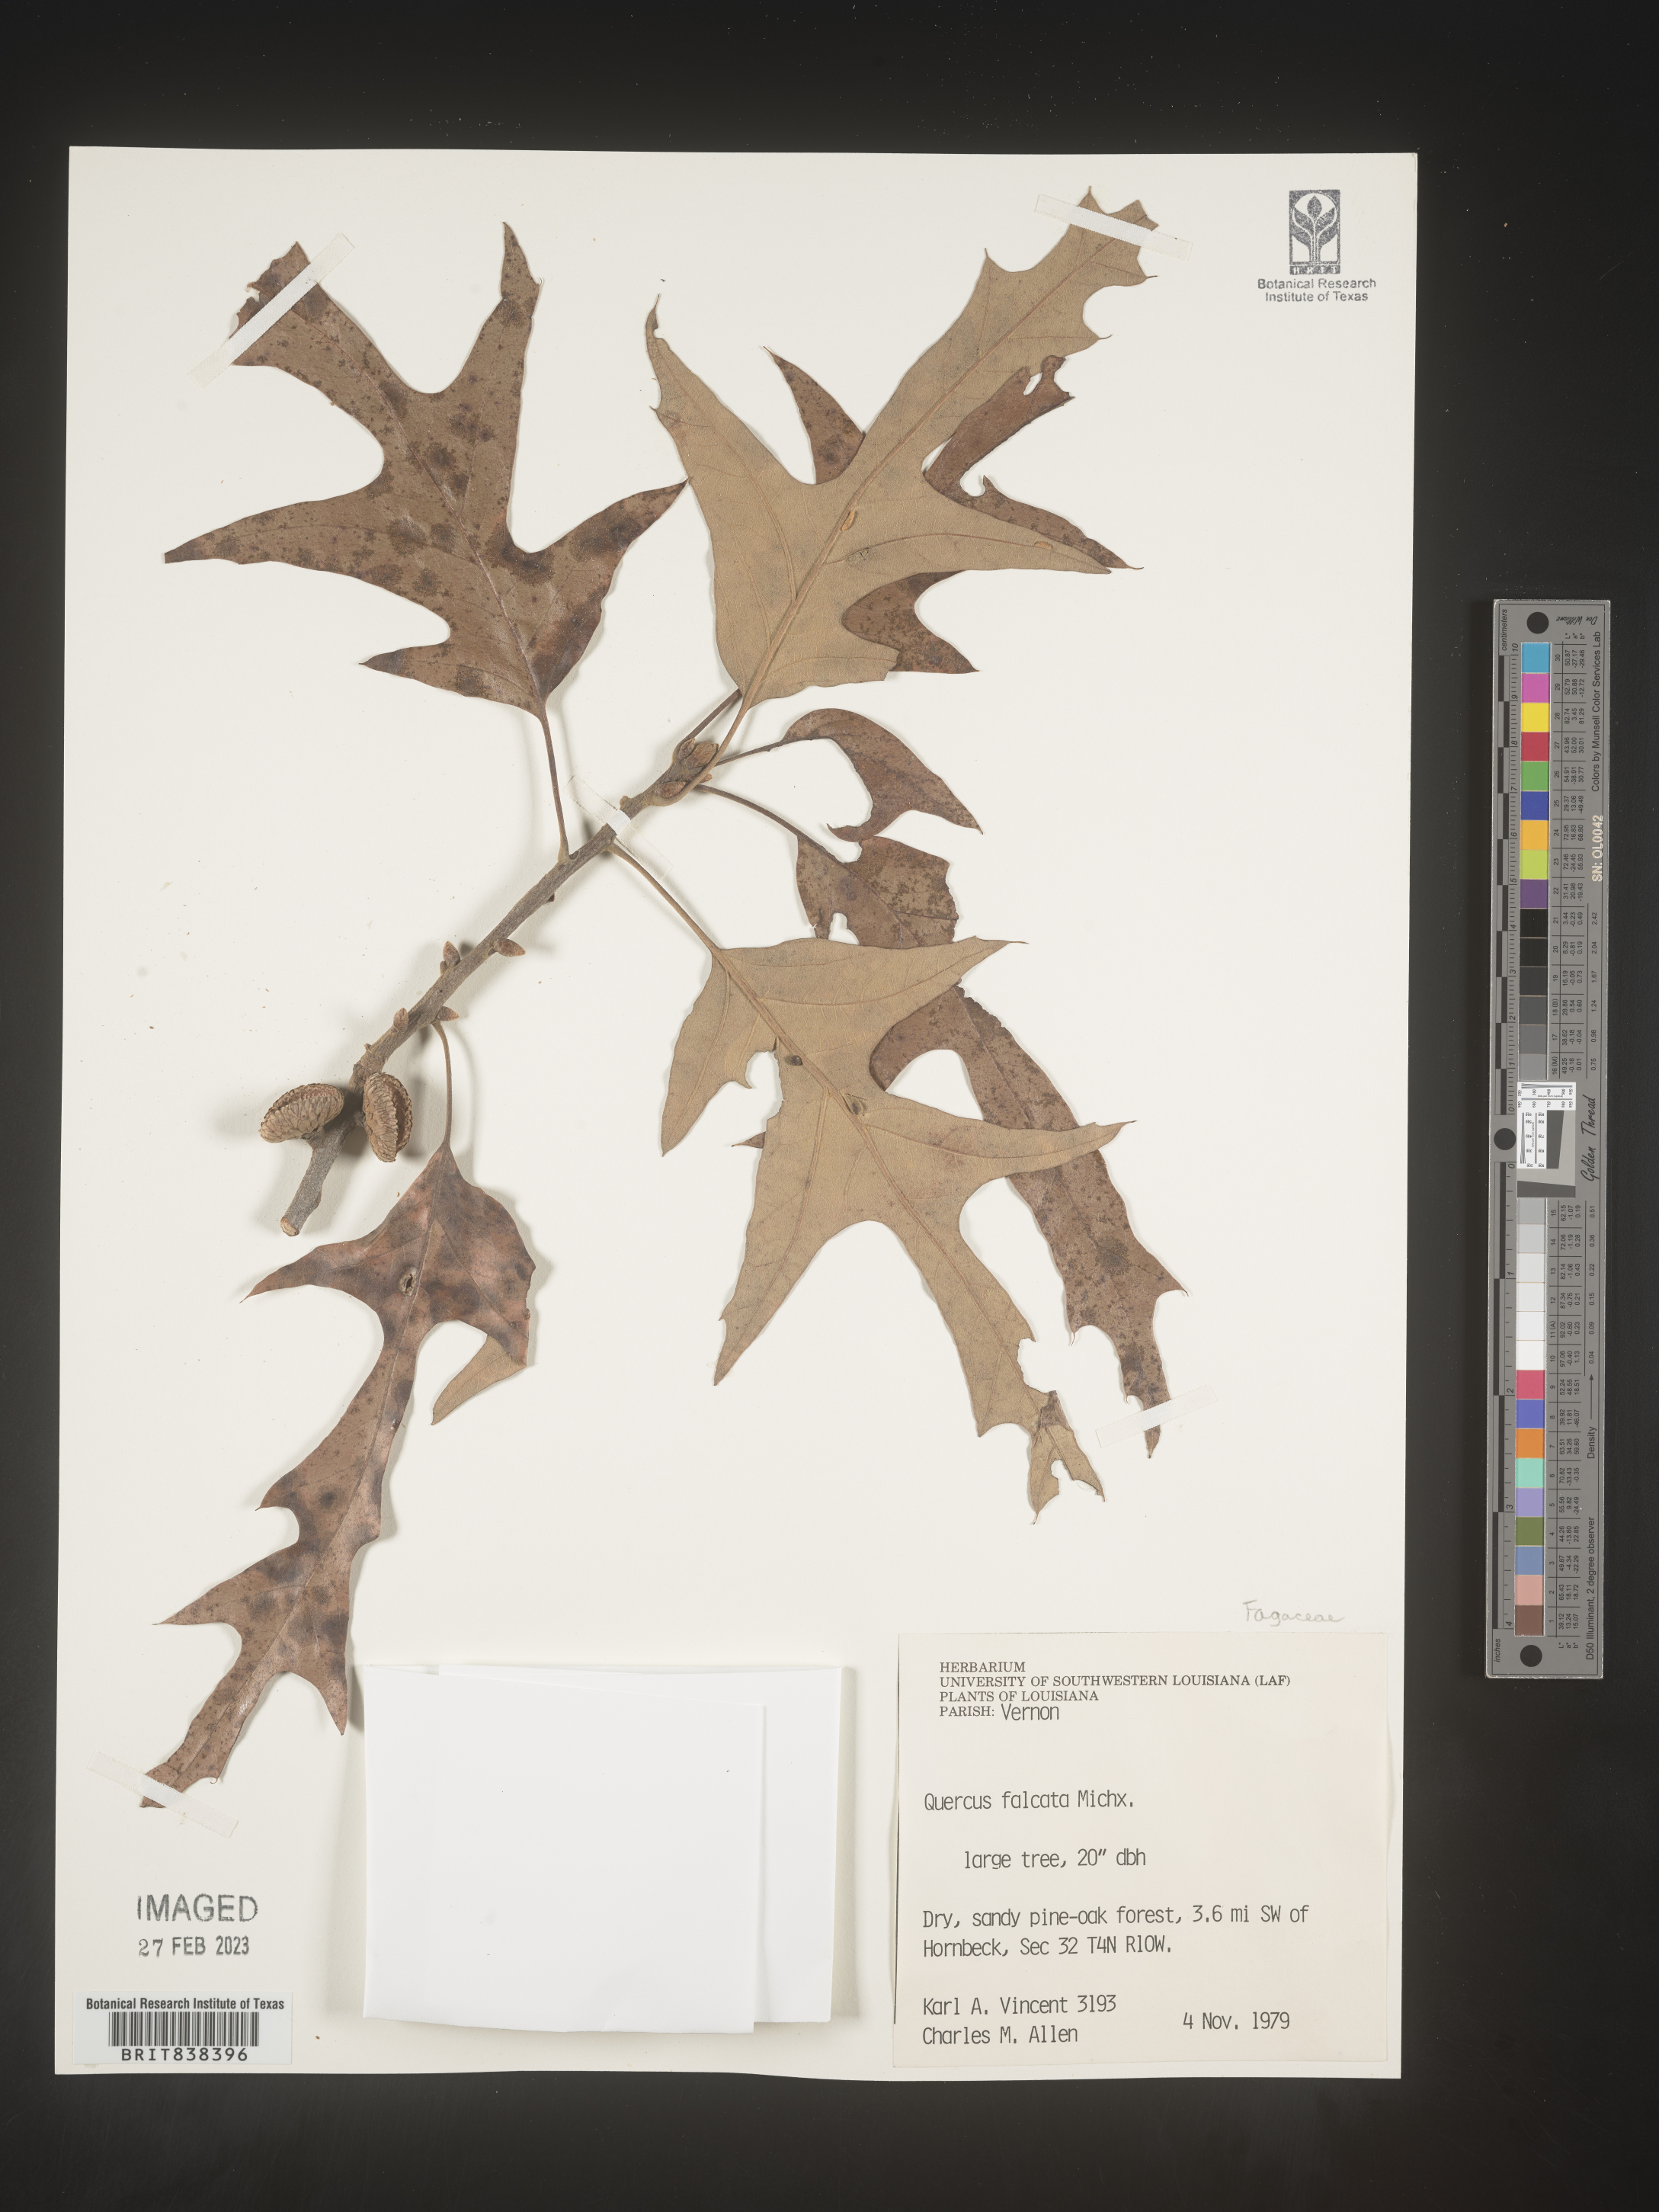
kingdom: Plantae
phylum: Tracheophyta
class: Magnoliopsida
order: Fagales
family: Fagaceae
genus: Quercus
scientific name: Quercus falcata
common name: Southern red oak
